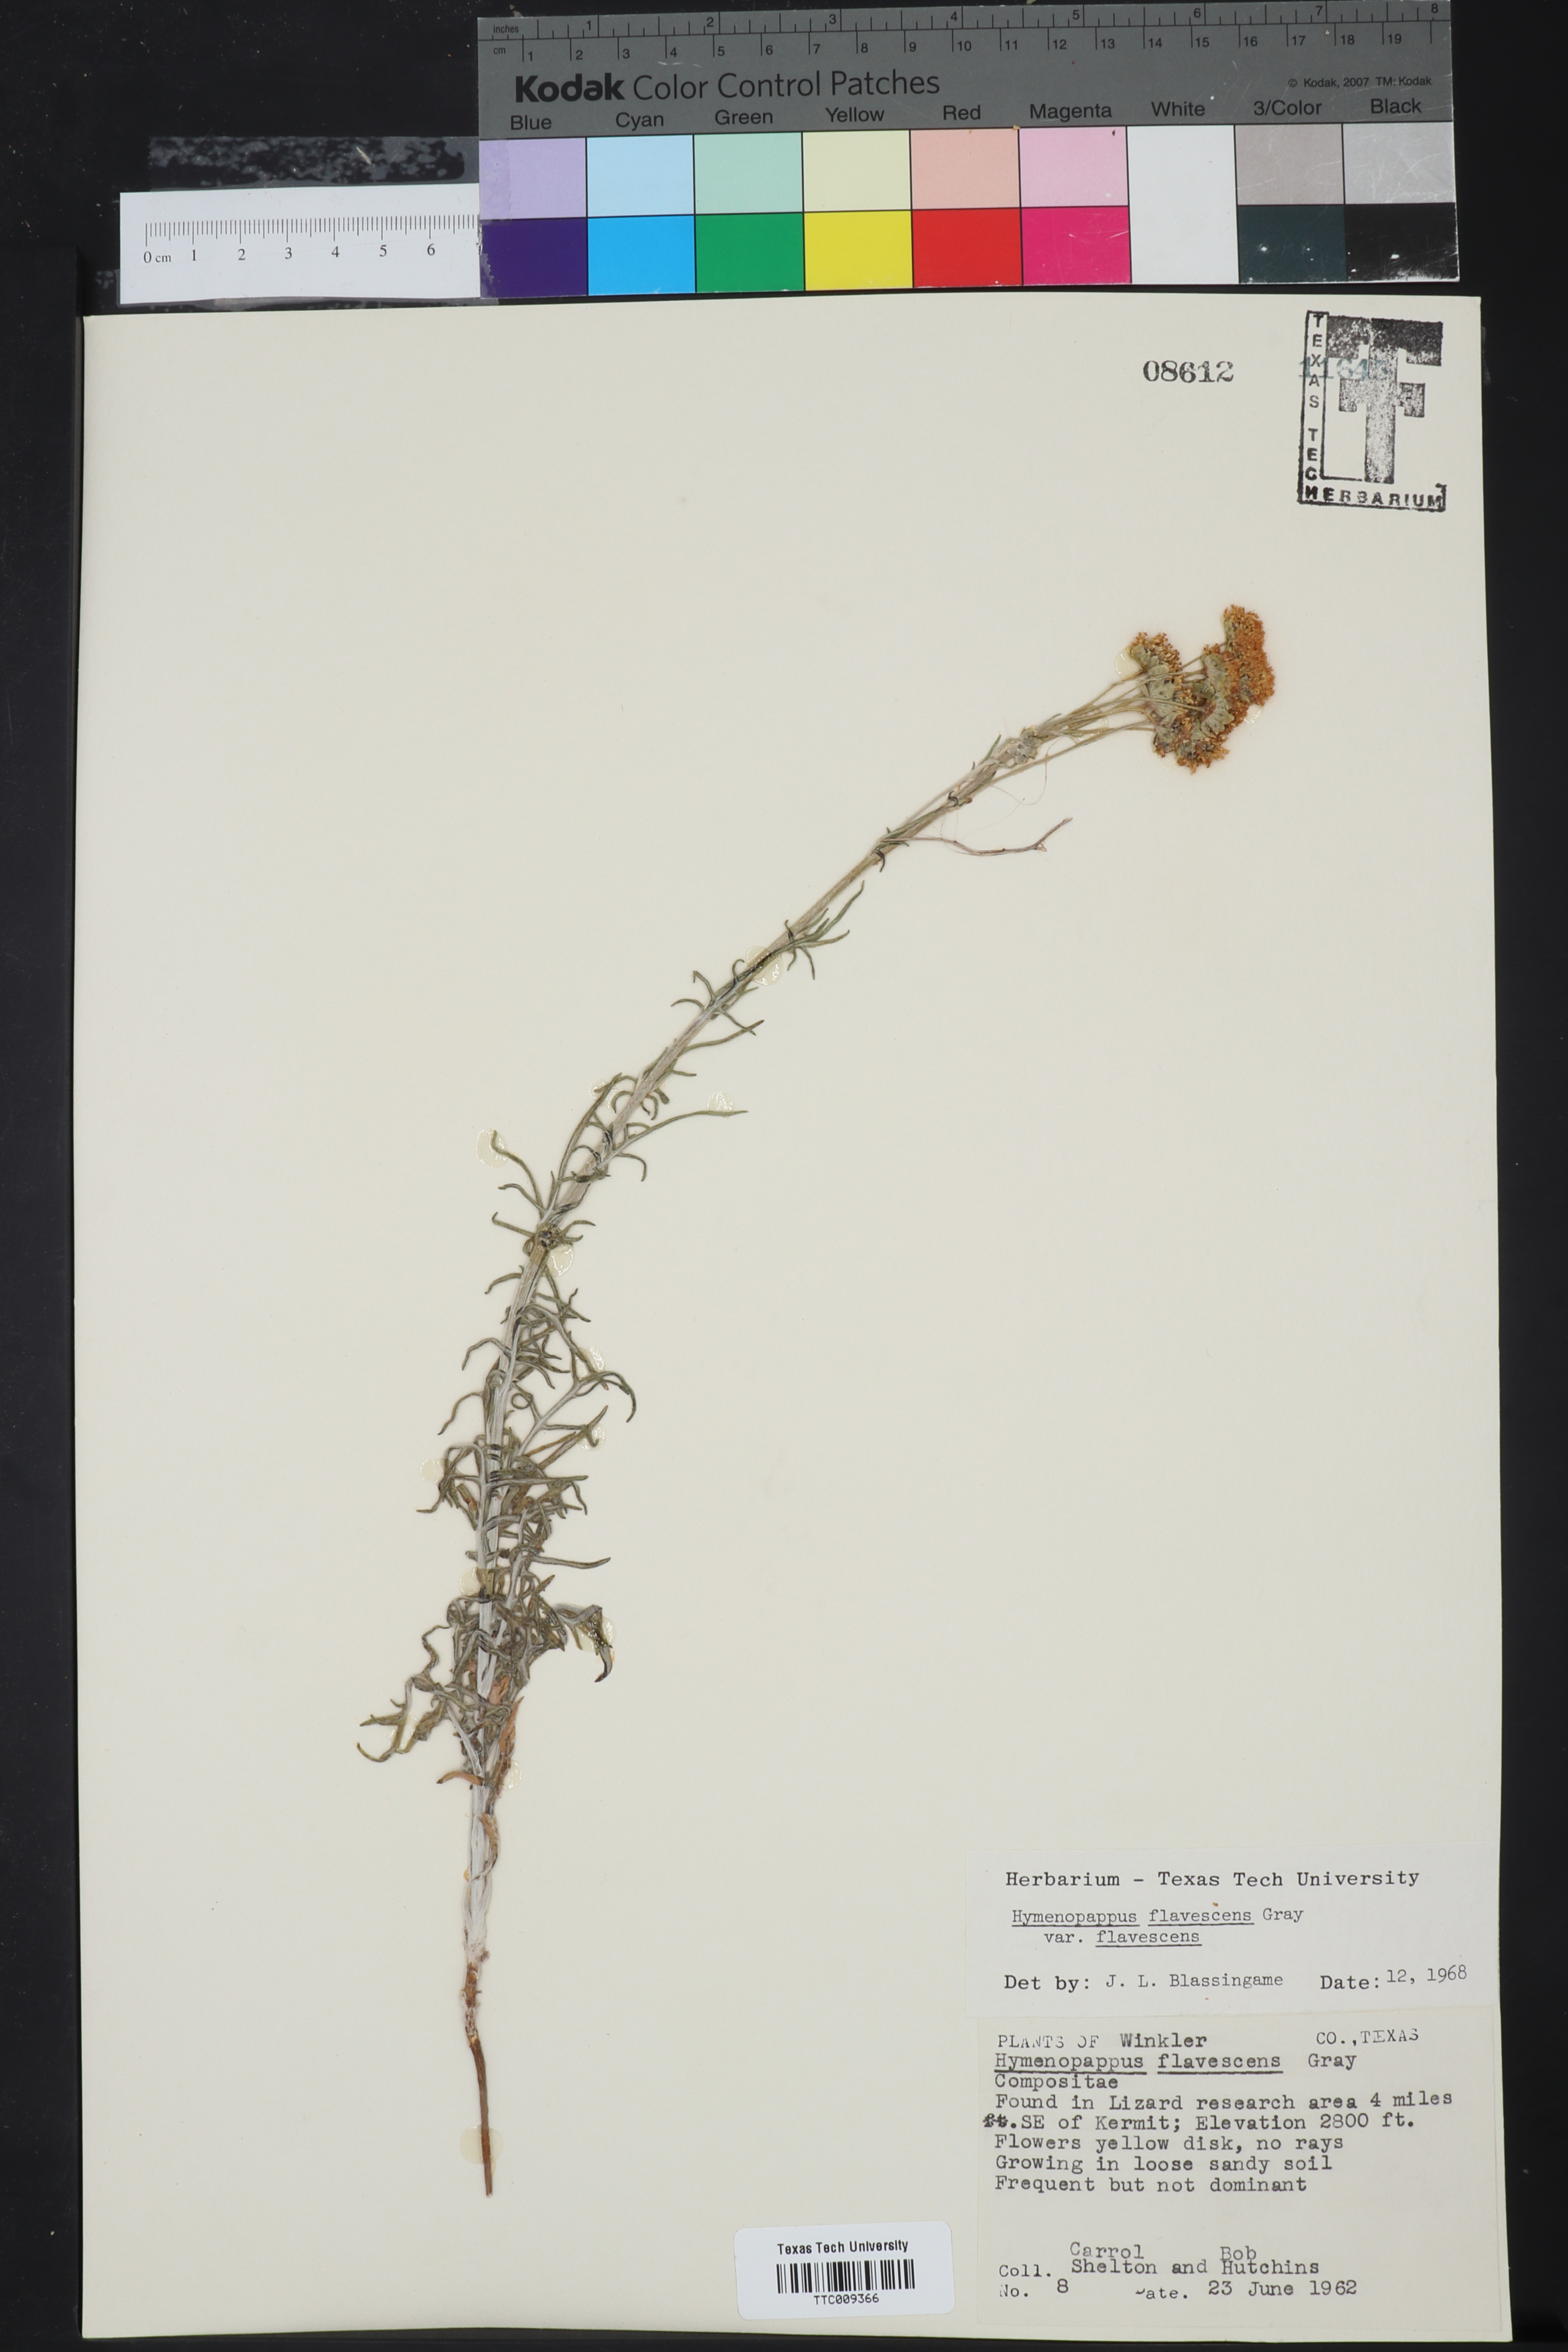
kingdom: Plantae
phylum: Tracheophyta
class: Magnoliopsida
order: Asterales
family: Asteraceae
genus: Hymenopappus
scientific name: Hymenopappus flavescens
